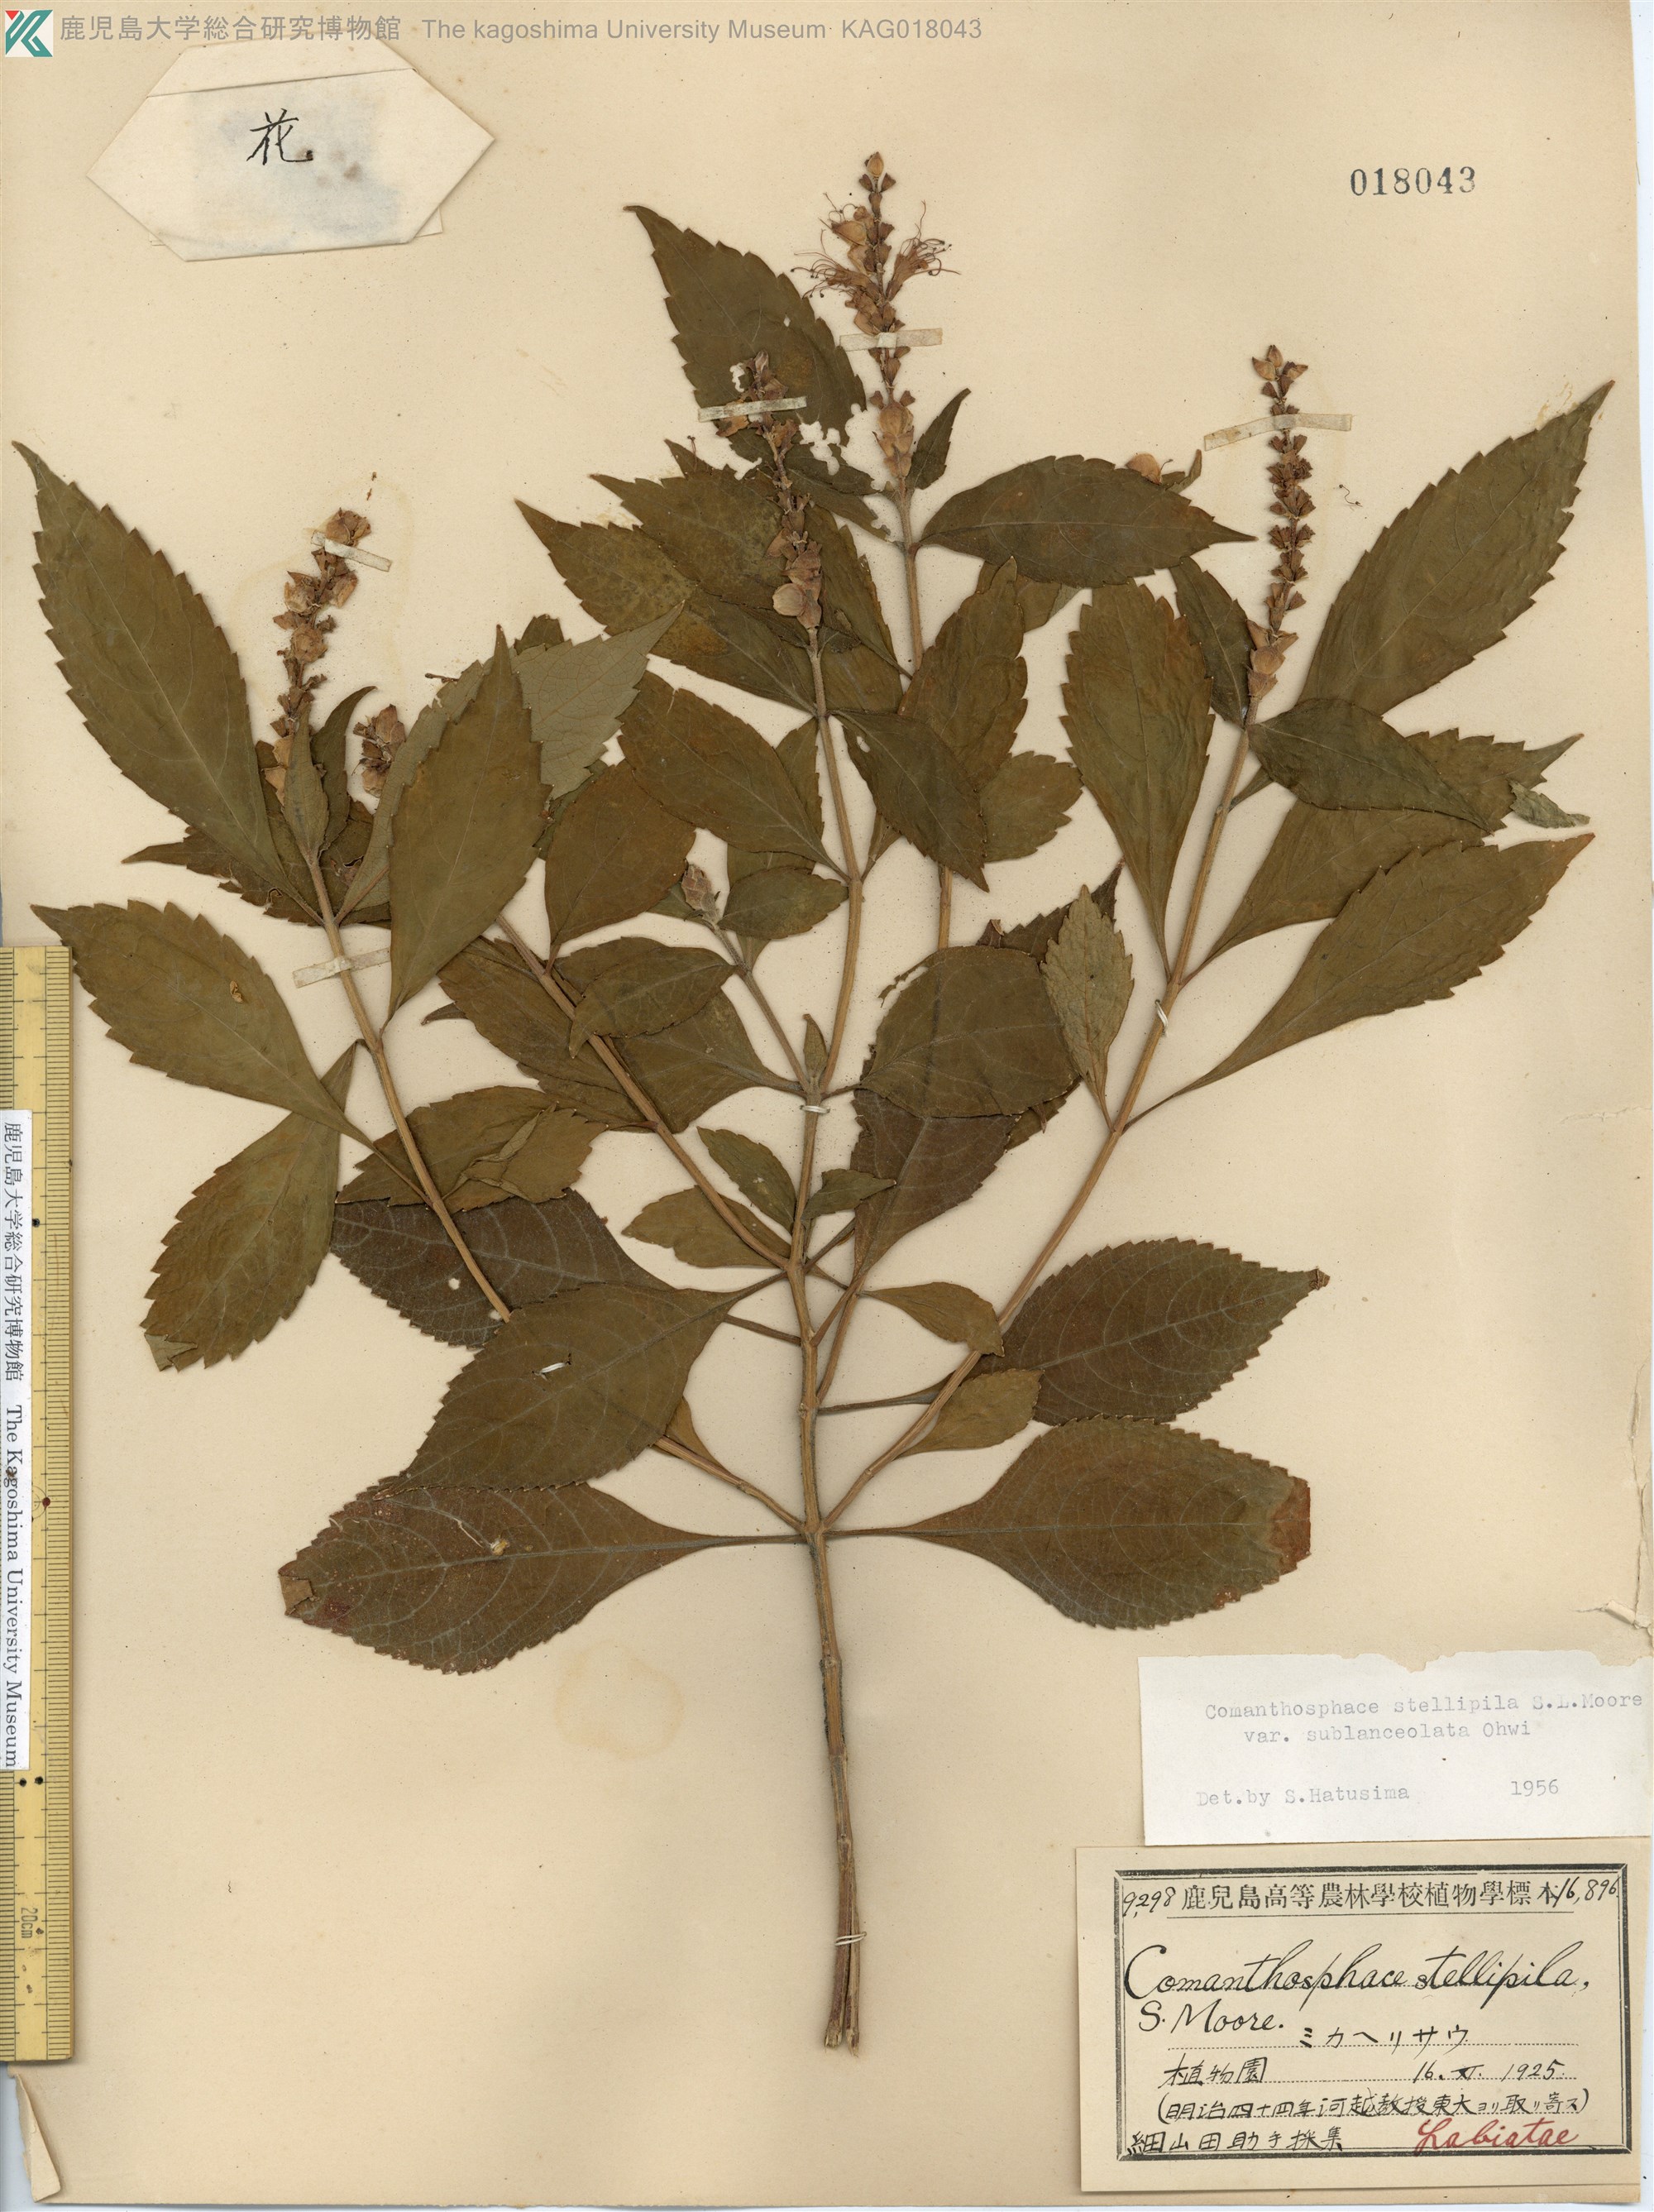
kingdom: Plantae
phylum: Tracheophyta
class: Magnoliopsida
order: Lamiales
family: Lamiaceae
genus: Comanthosphace
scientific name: Comanthosphace japonica
